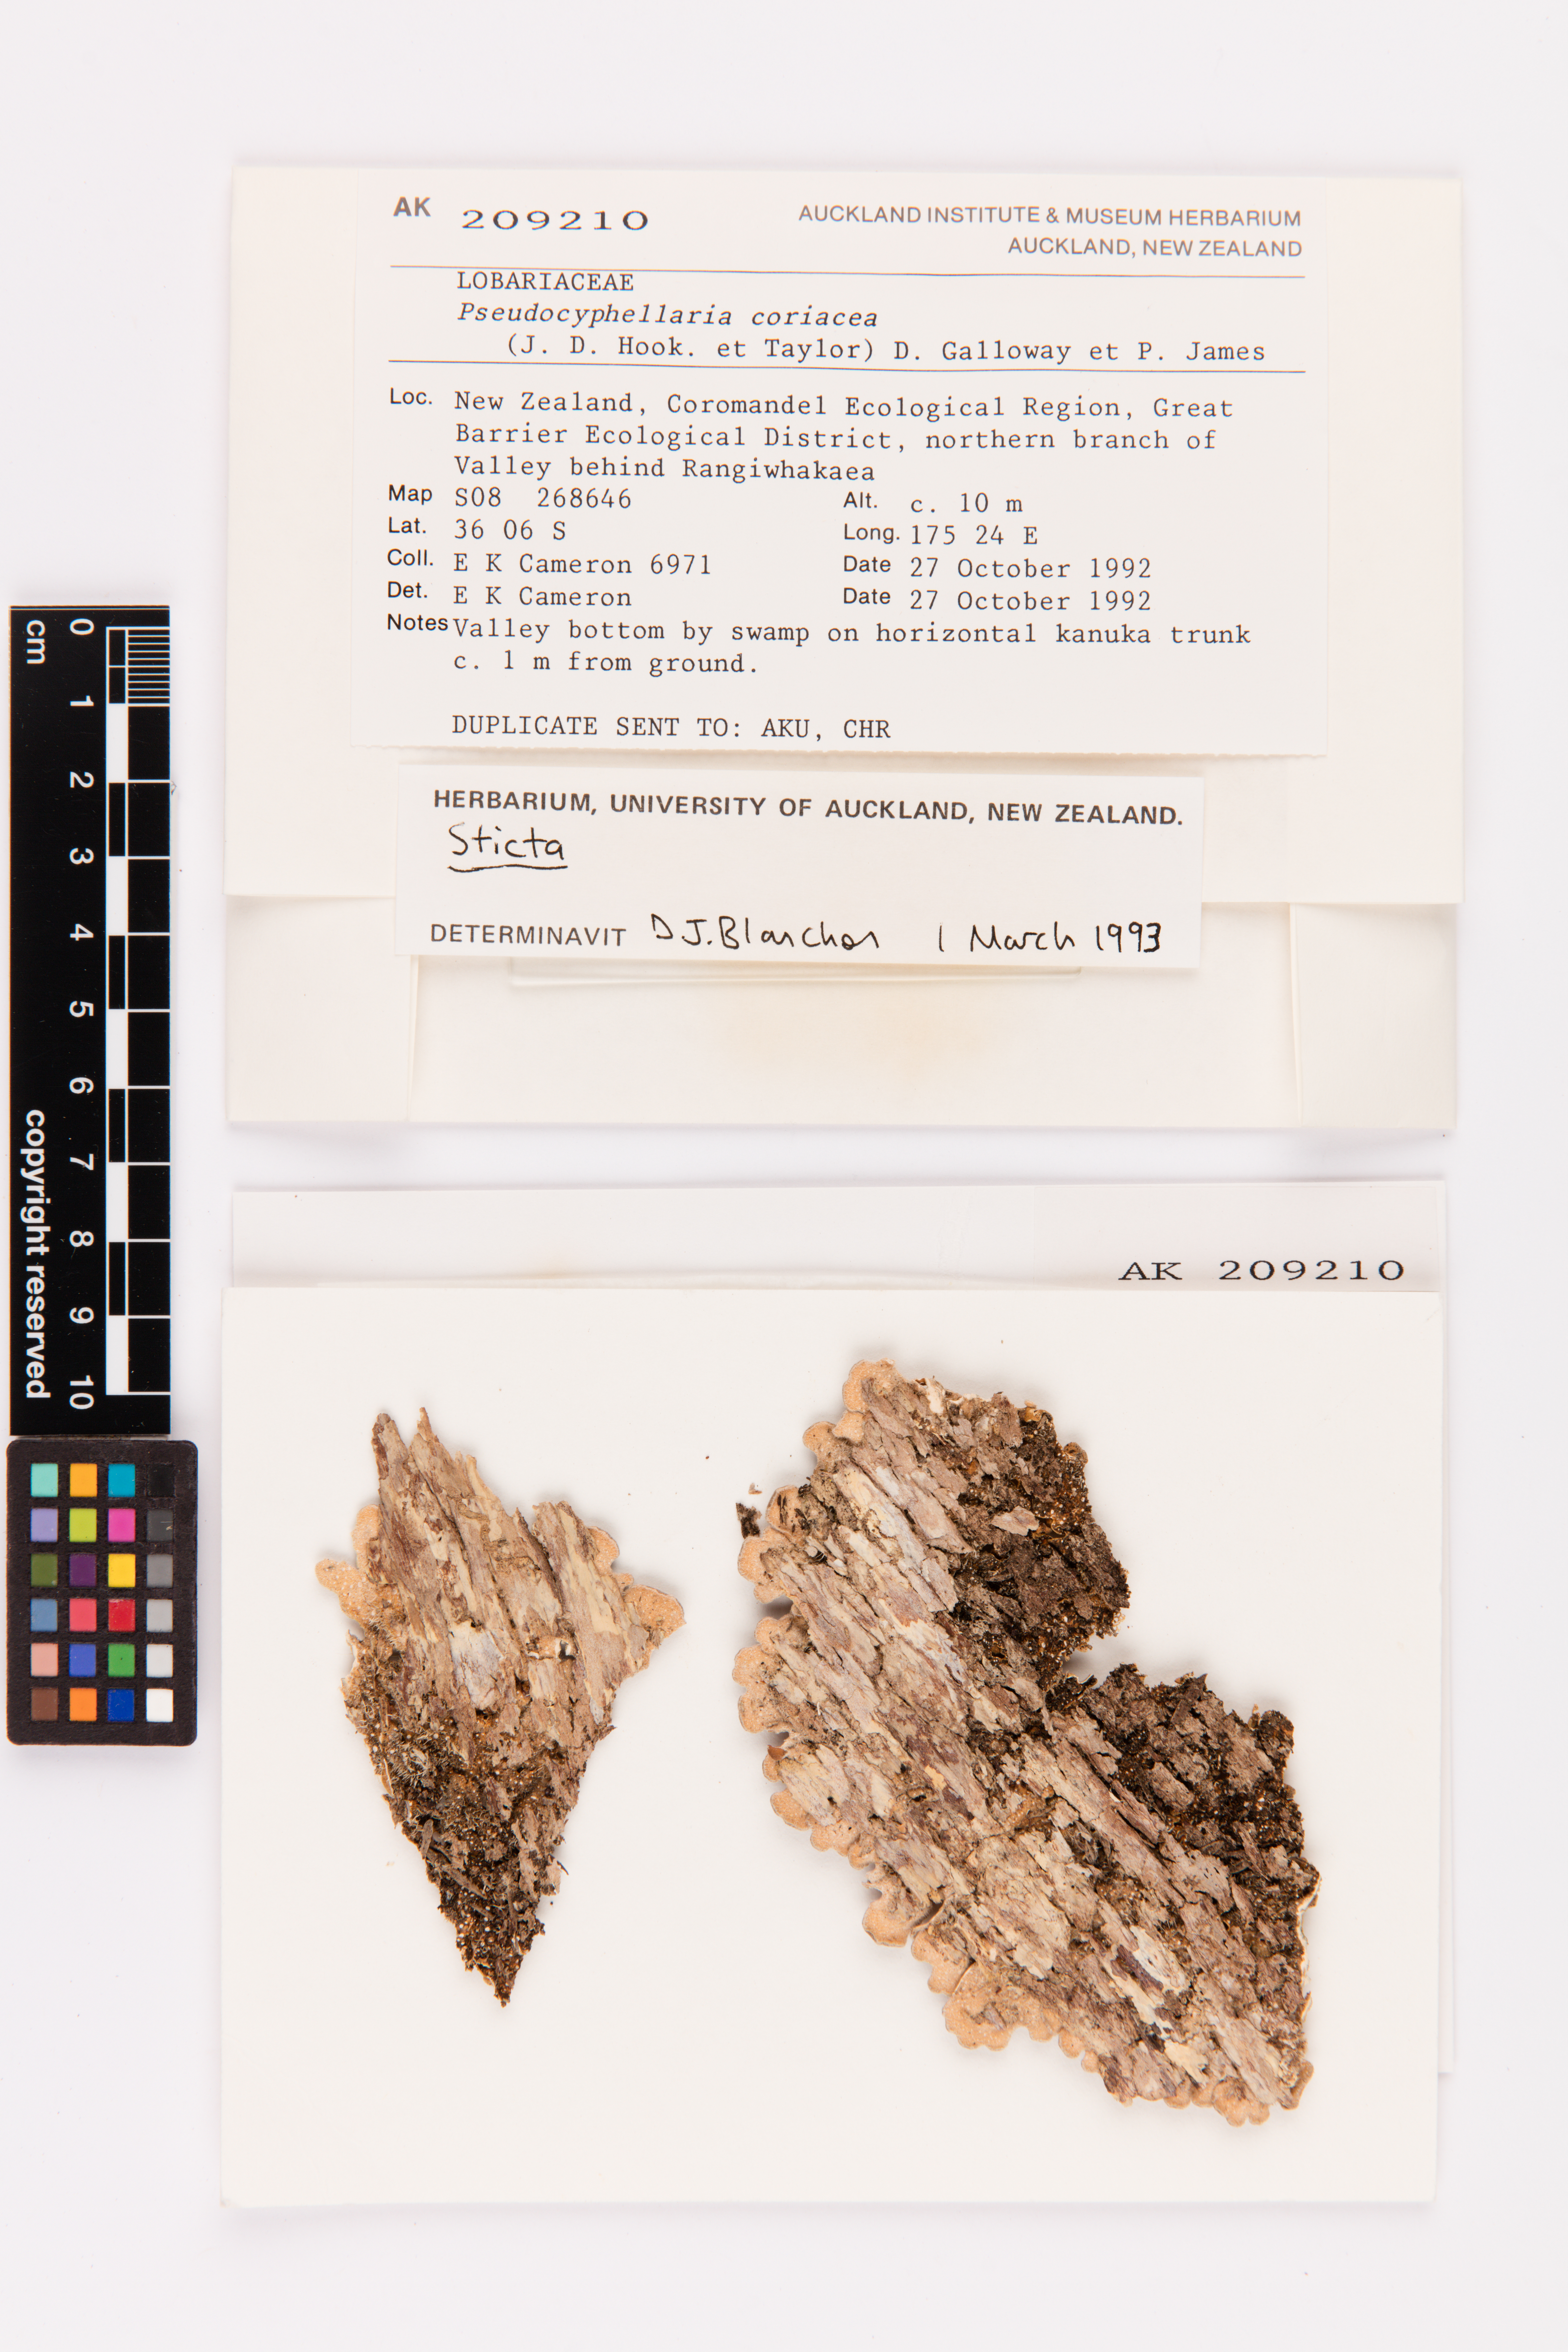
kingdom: Fungi
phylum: Ascomycota
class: Lecanoromycetes
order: Peltigerales
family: Lobariaceae
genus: Pseudocyphellaria
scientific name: Pseudocyphellaria coriacea
